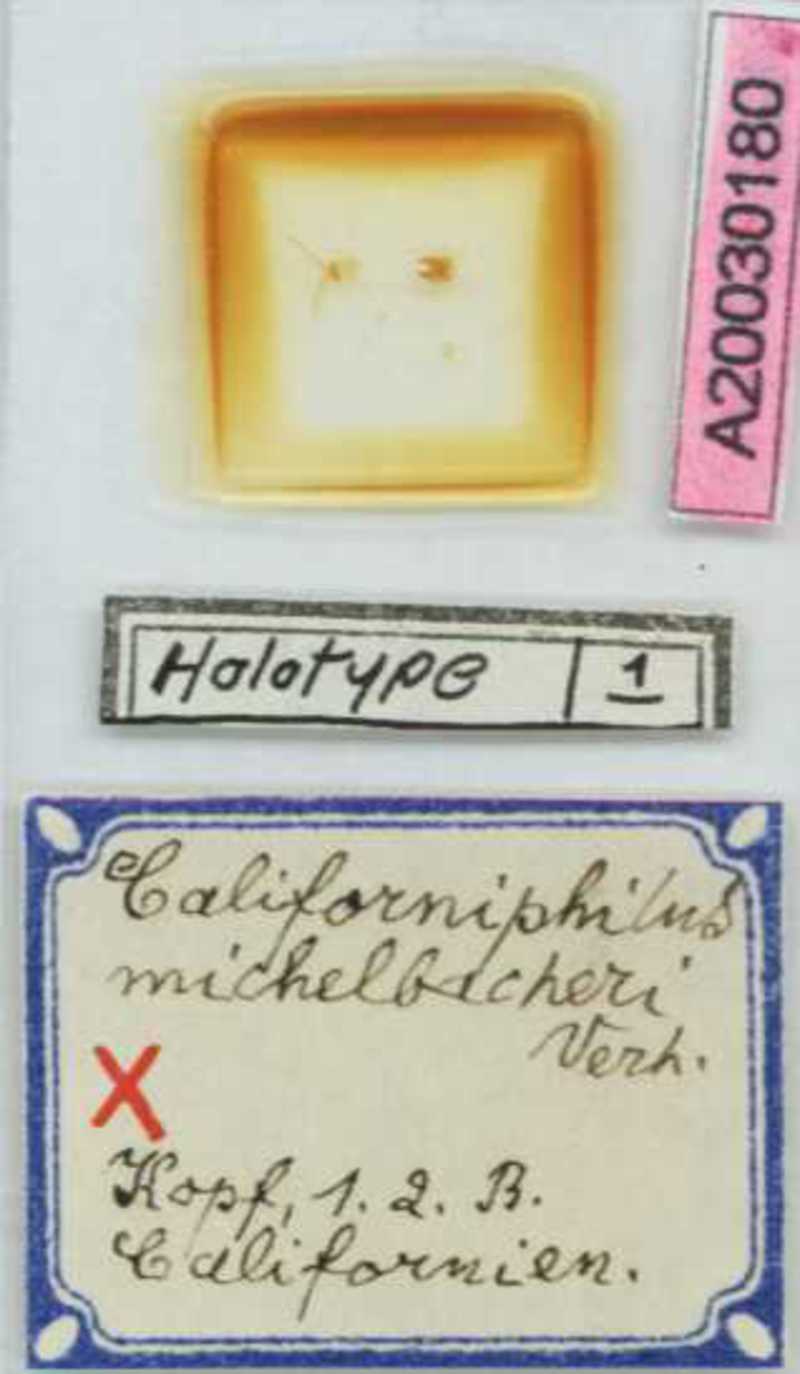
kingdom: Animalia
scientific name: Animalia
